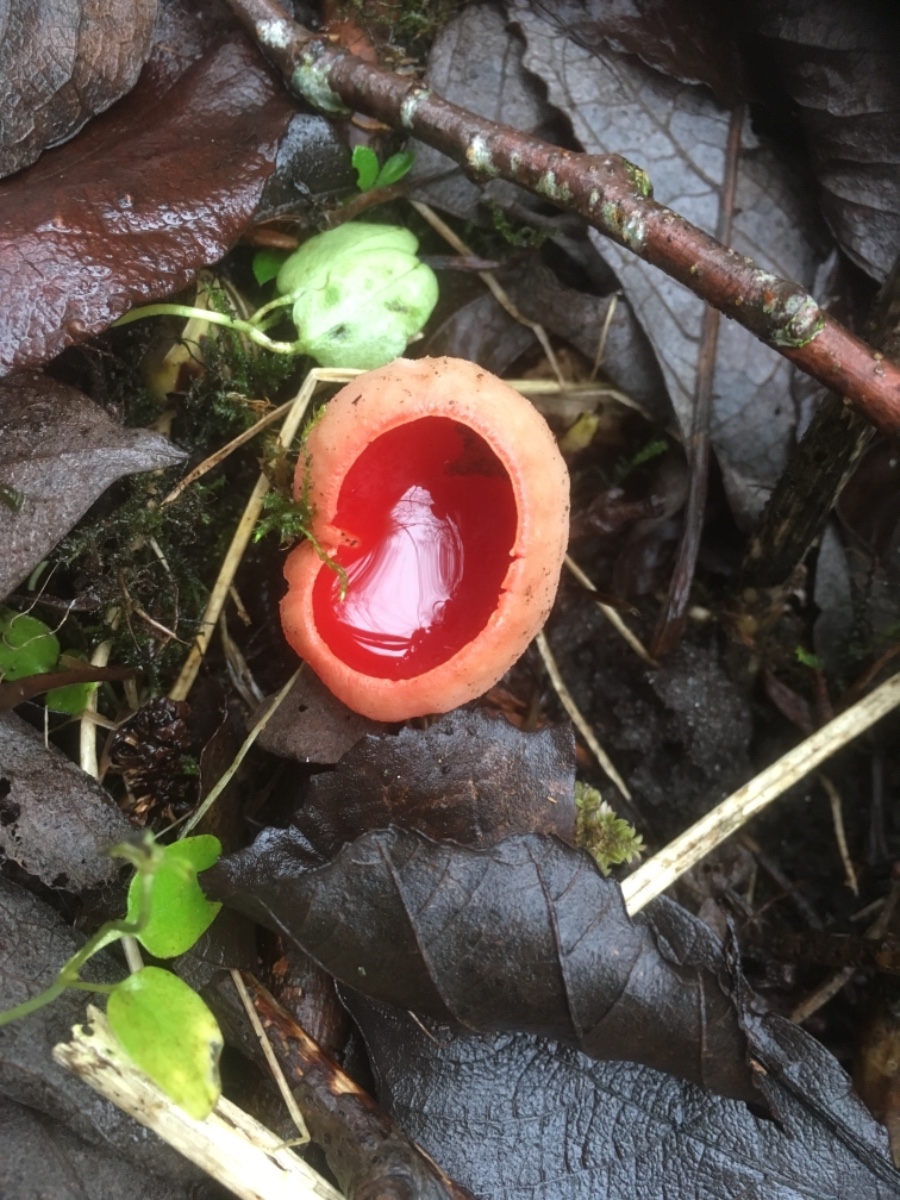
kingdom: Fungi
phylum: Ascomycota
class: Pezizomycetes
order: Pezizales
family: Sarcoscyphaceae
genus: Sarcoscypha
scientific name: Sarcoscypha austriaca
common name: krølhåret pragtbæger
